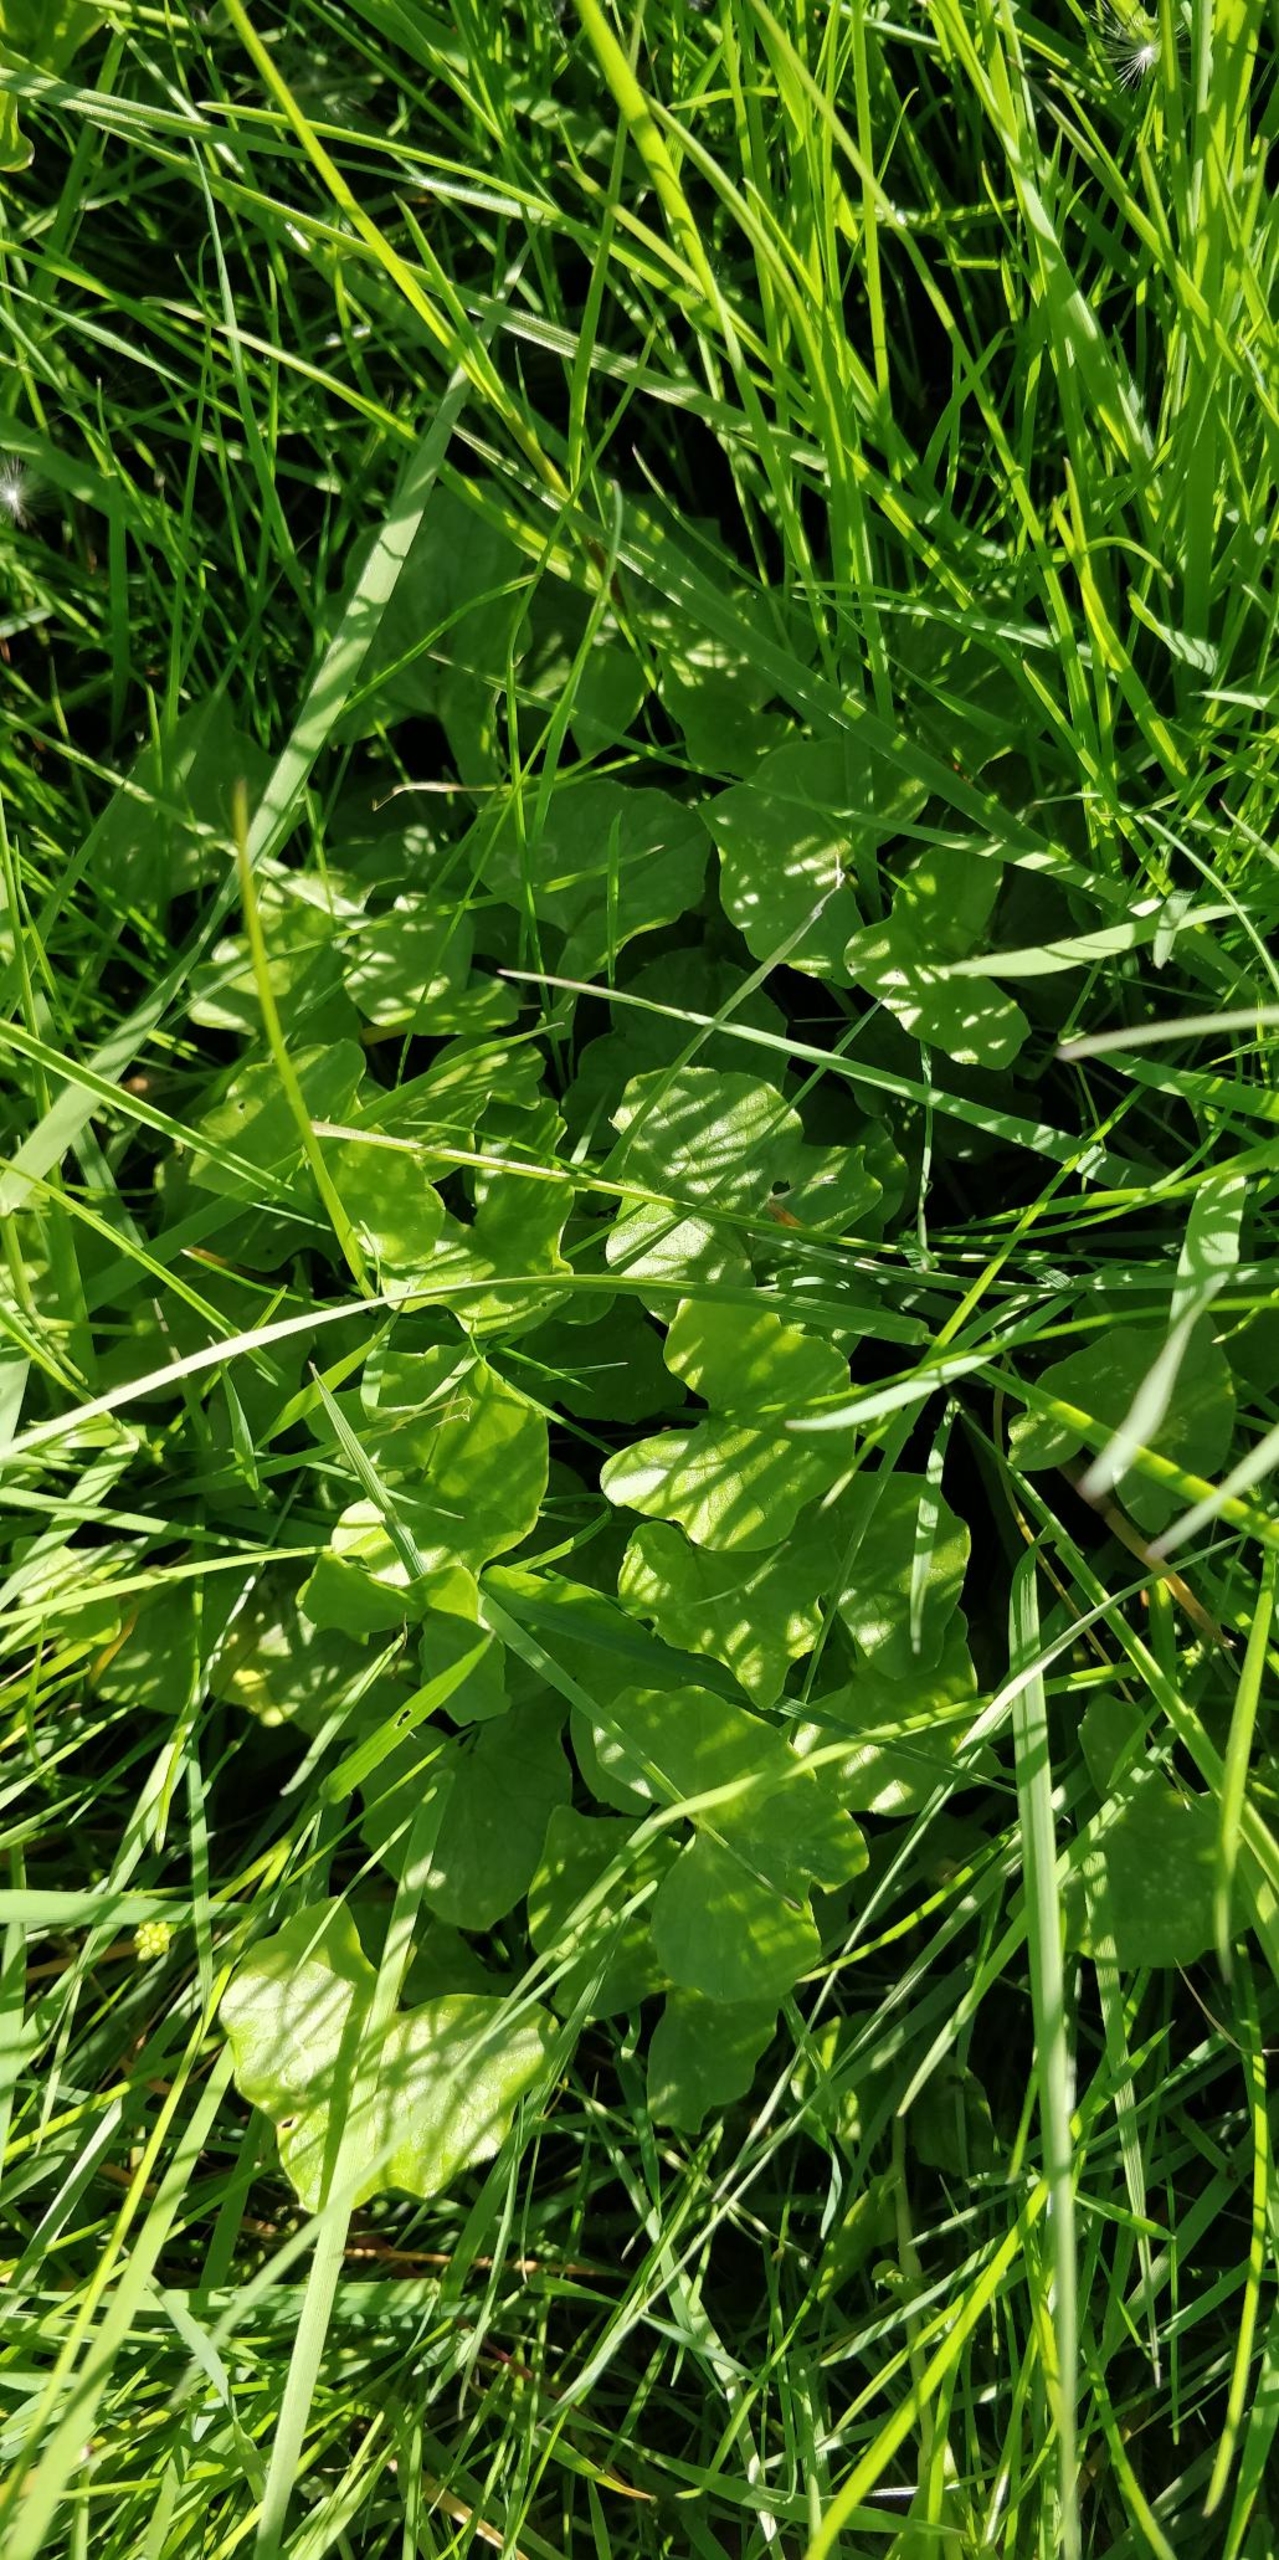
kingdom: Plantae
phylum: Tracheophyta
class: Magnoliopsida
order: Ranunculales
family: Ranunculaceae
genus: Ficaria
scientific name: Ficaria verna
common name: Vorterod
